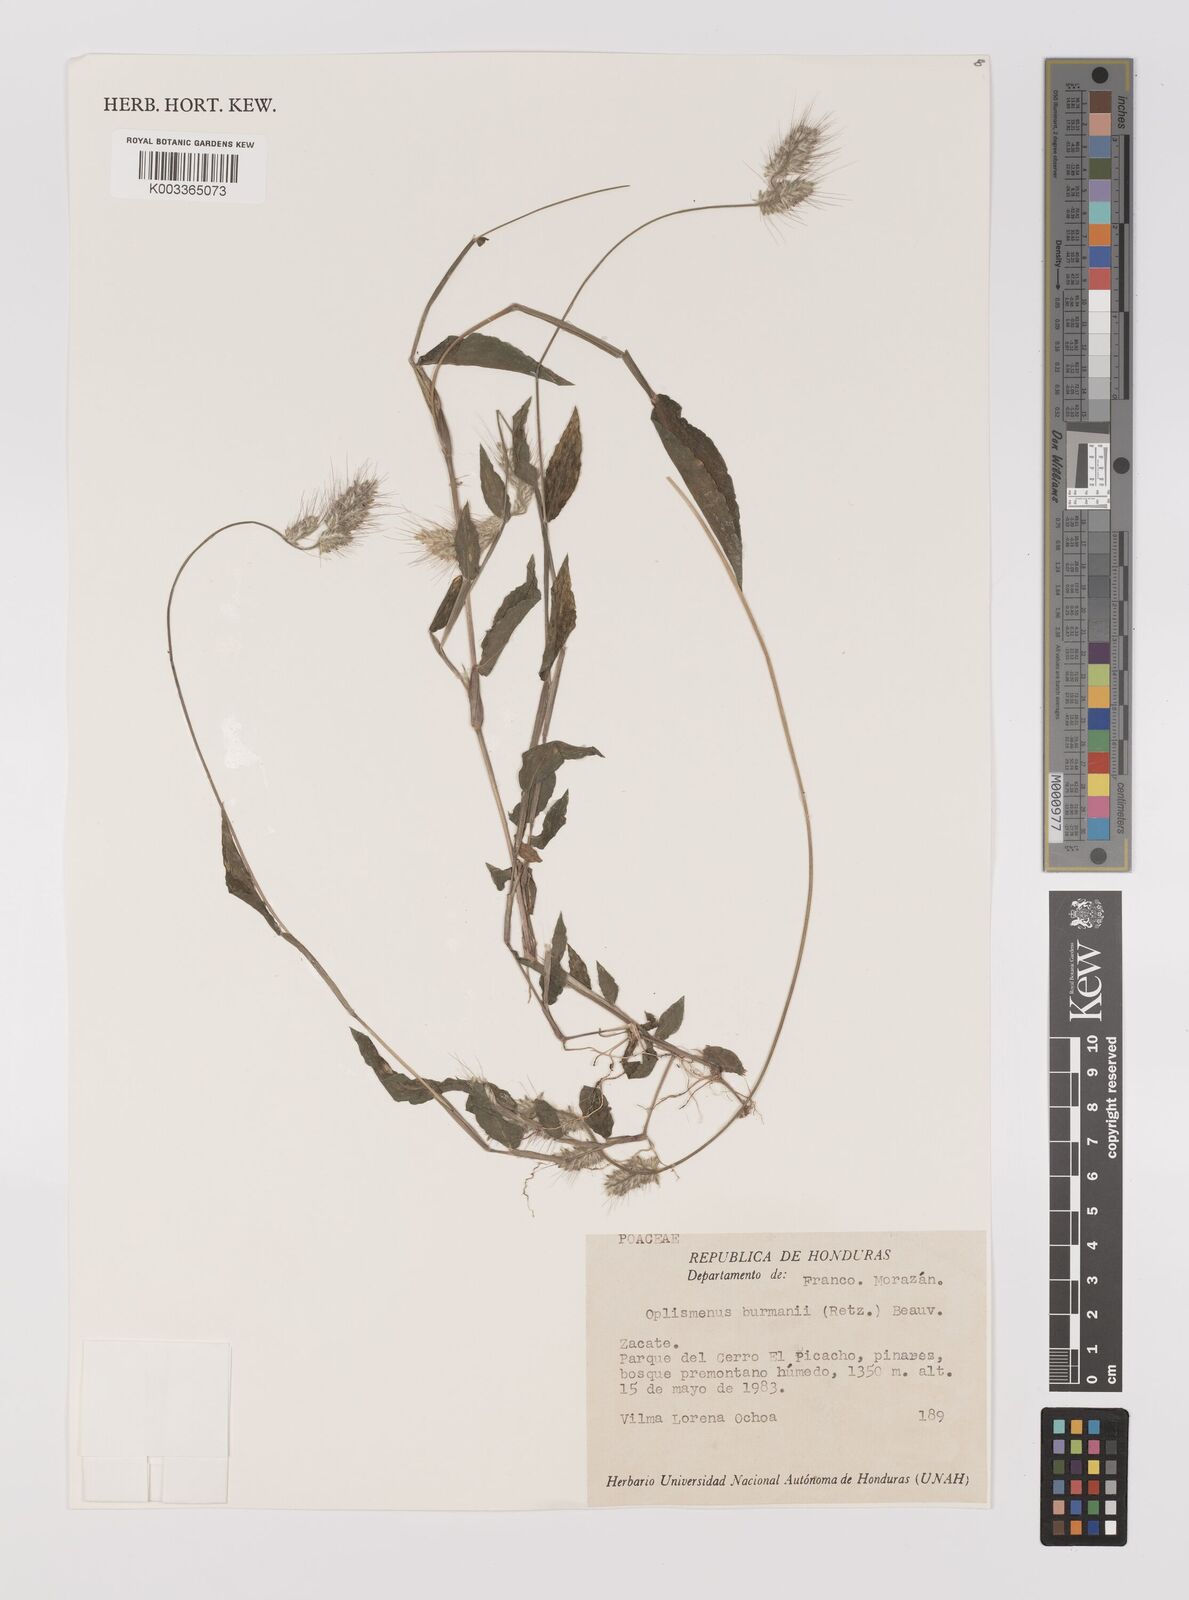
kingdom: Plantae
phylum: Tracheophyta
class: Liliopsida
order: Poales
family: Poaceae
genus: Oplismenus
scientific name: Oplismenus burmanni
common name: Burmann's basketgrass
